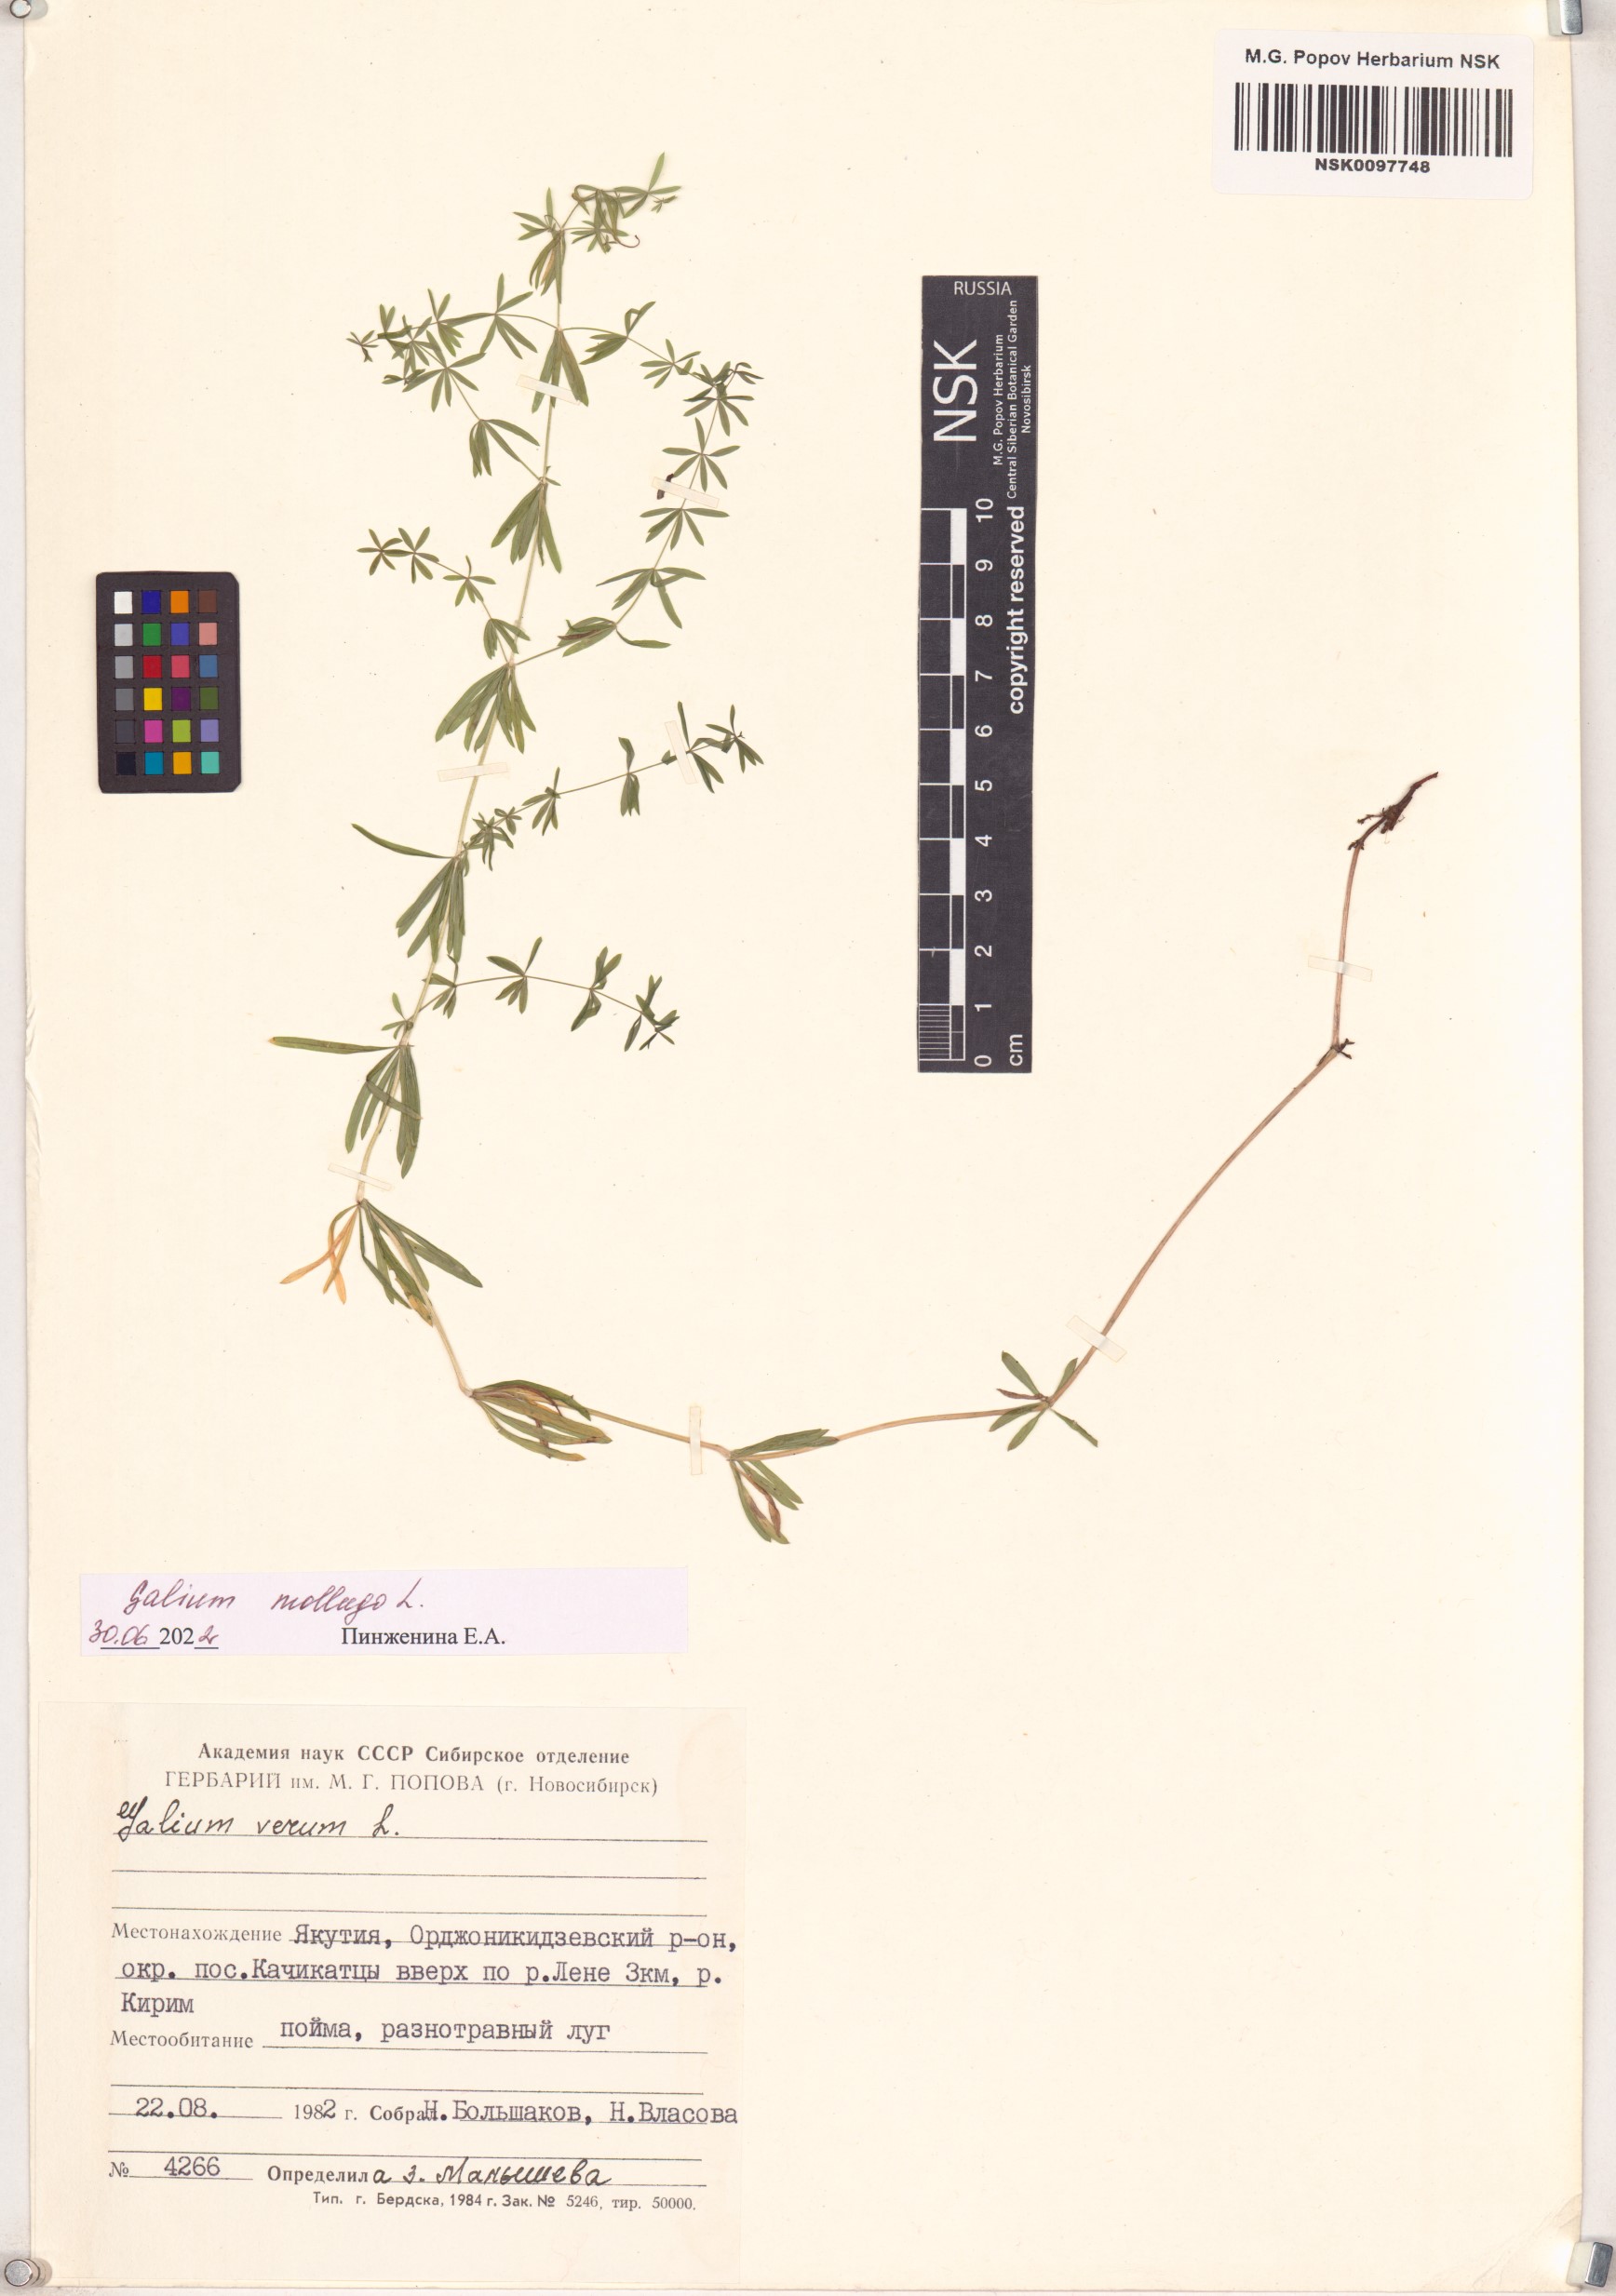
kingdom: Plantae
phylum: Tracheophyta
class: Magnoliopsida
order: Gentianales
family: Rubiaceae
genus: Galium
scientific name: Galium mollugo
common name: Hedge bedstraw
